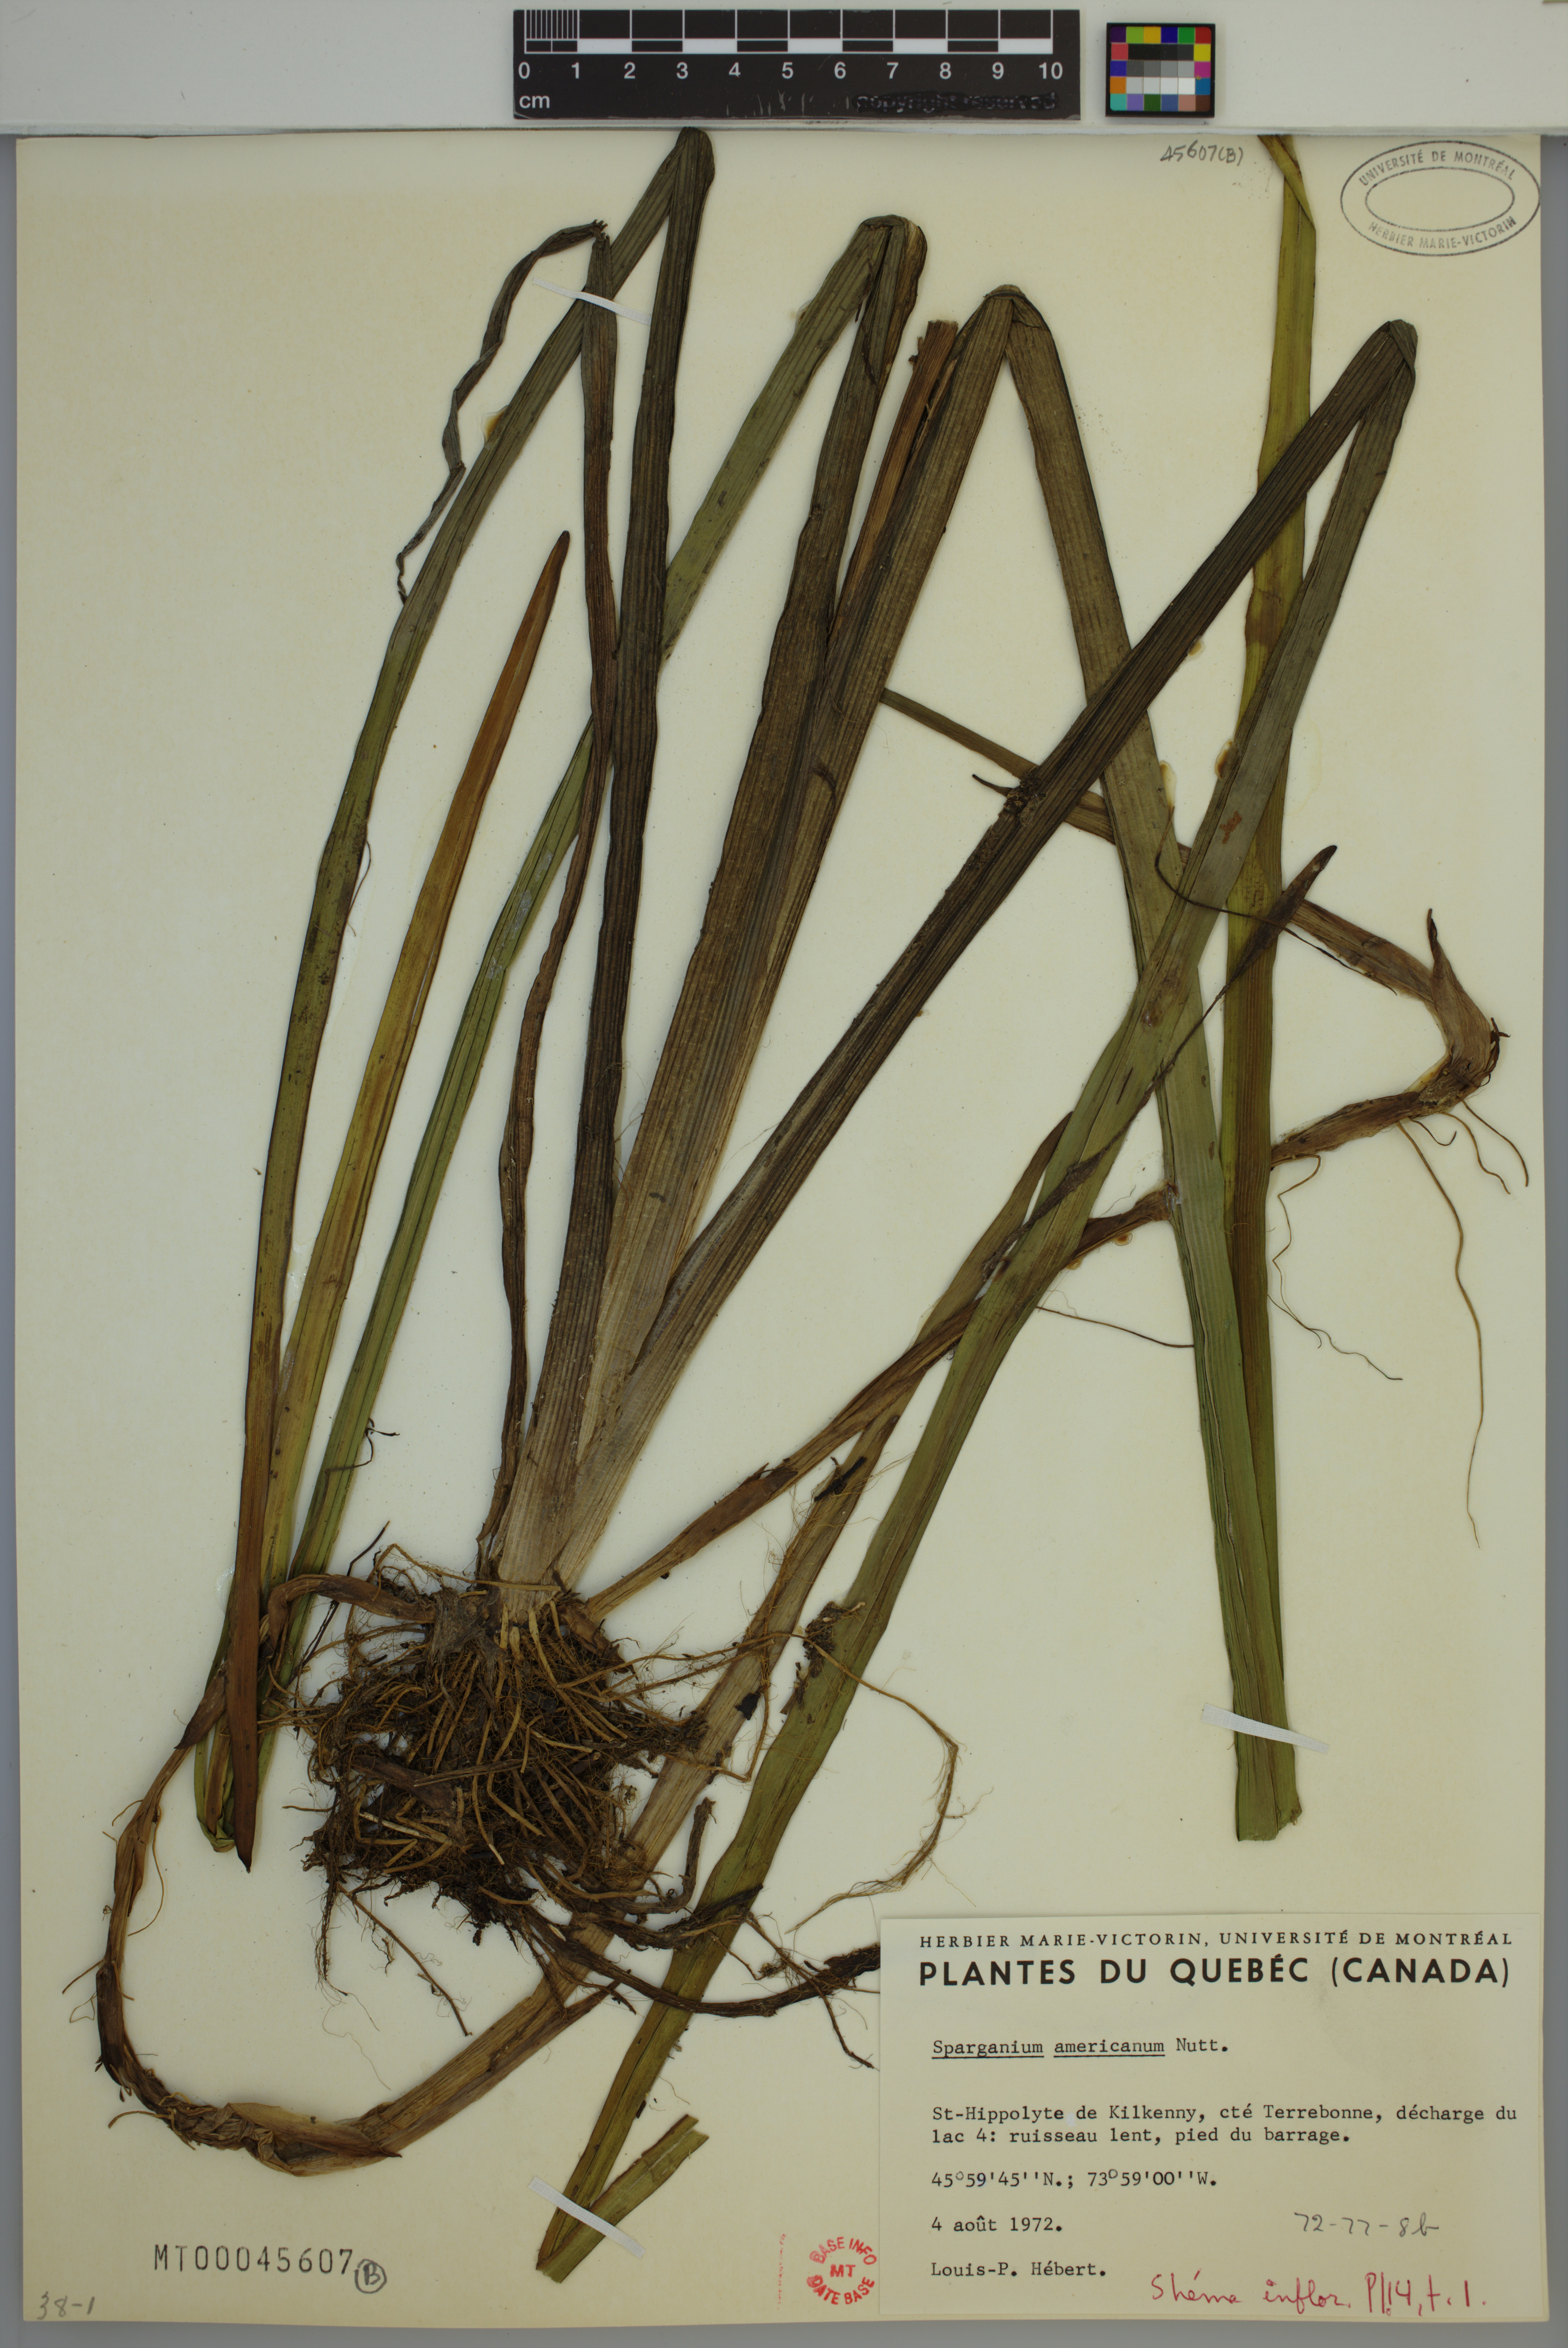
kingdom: Plantae
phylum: Tracheophyta
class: Liliopsida
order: Poales
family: Typhaceae
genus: Sparganium
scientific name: Sparganium americanum
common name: American burreed
